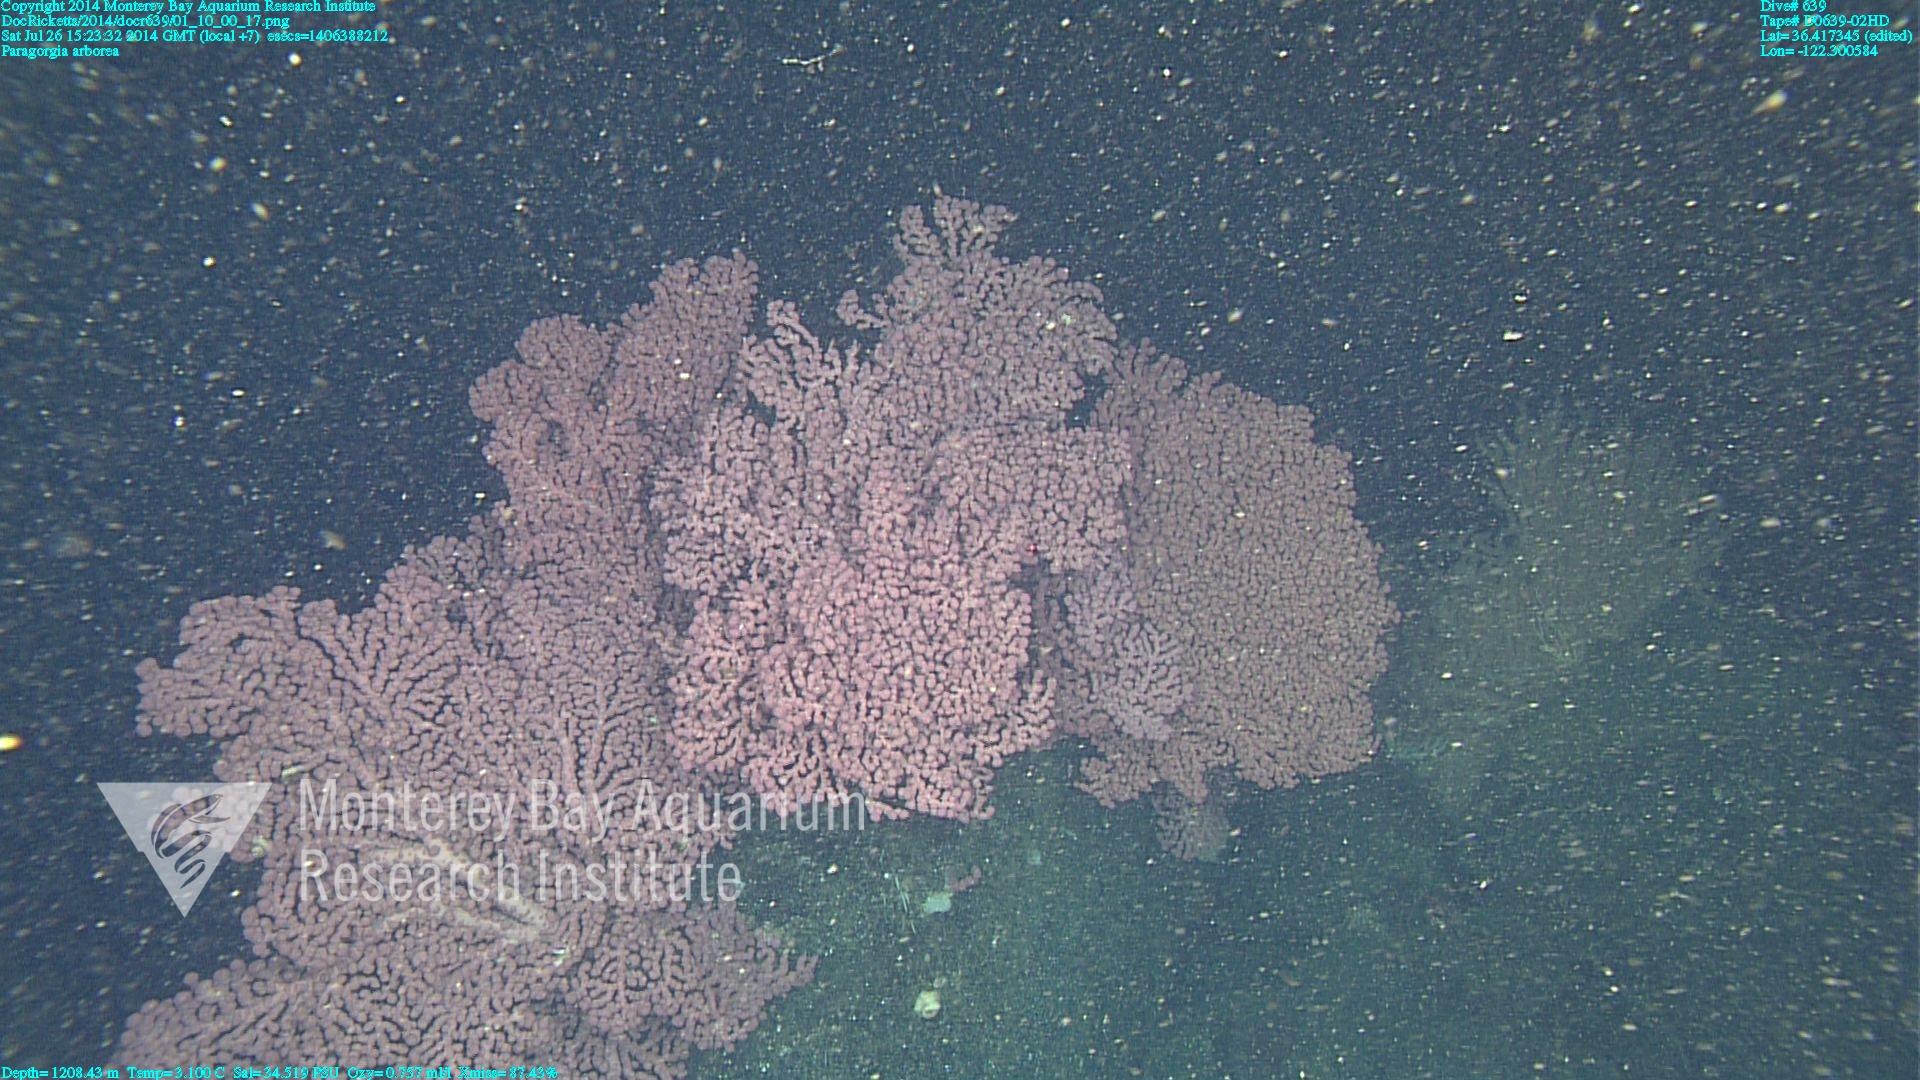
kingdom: Animalia
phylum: Cnidaria
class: Anthozoa
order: Scleralcyonacea
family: Coralliidae
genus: Paragorgia
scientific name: Paragorgia arborea
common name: Bubble gum coral
